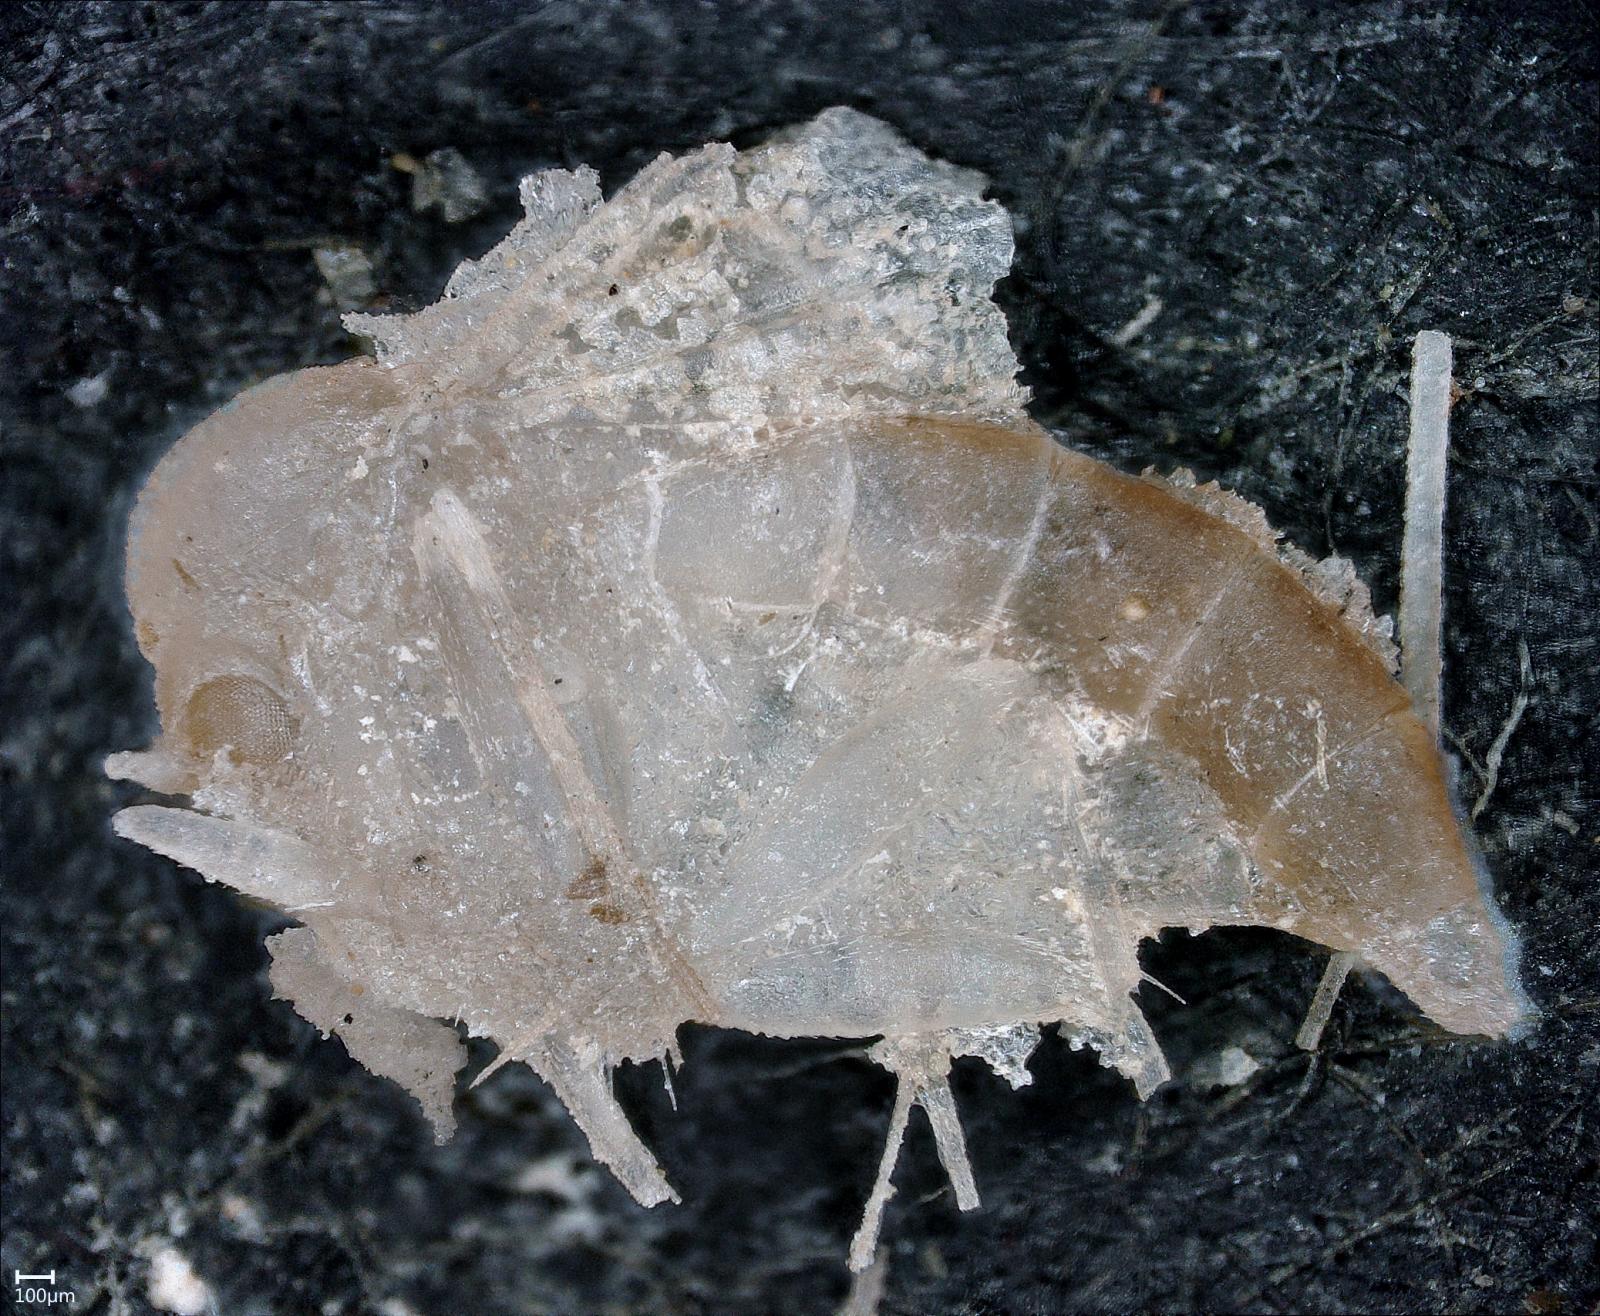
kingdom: Animalia
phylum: Arthropoda
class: Insecta
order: Diptera
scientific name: Diptera
